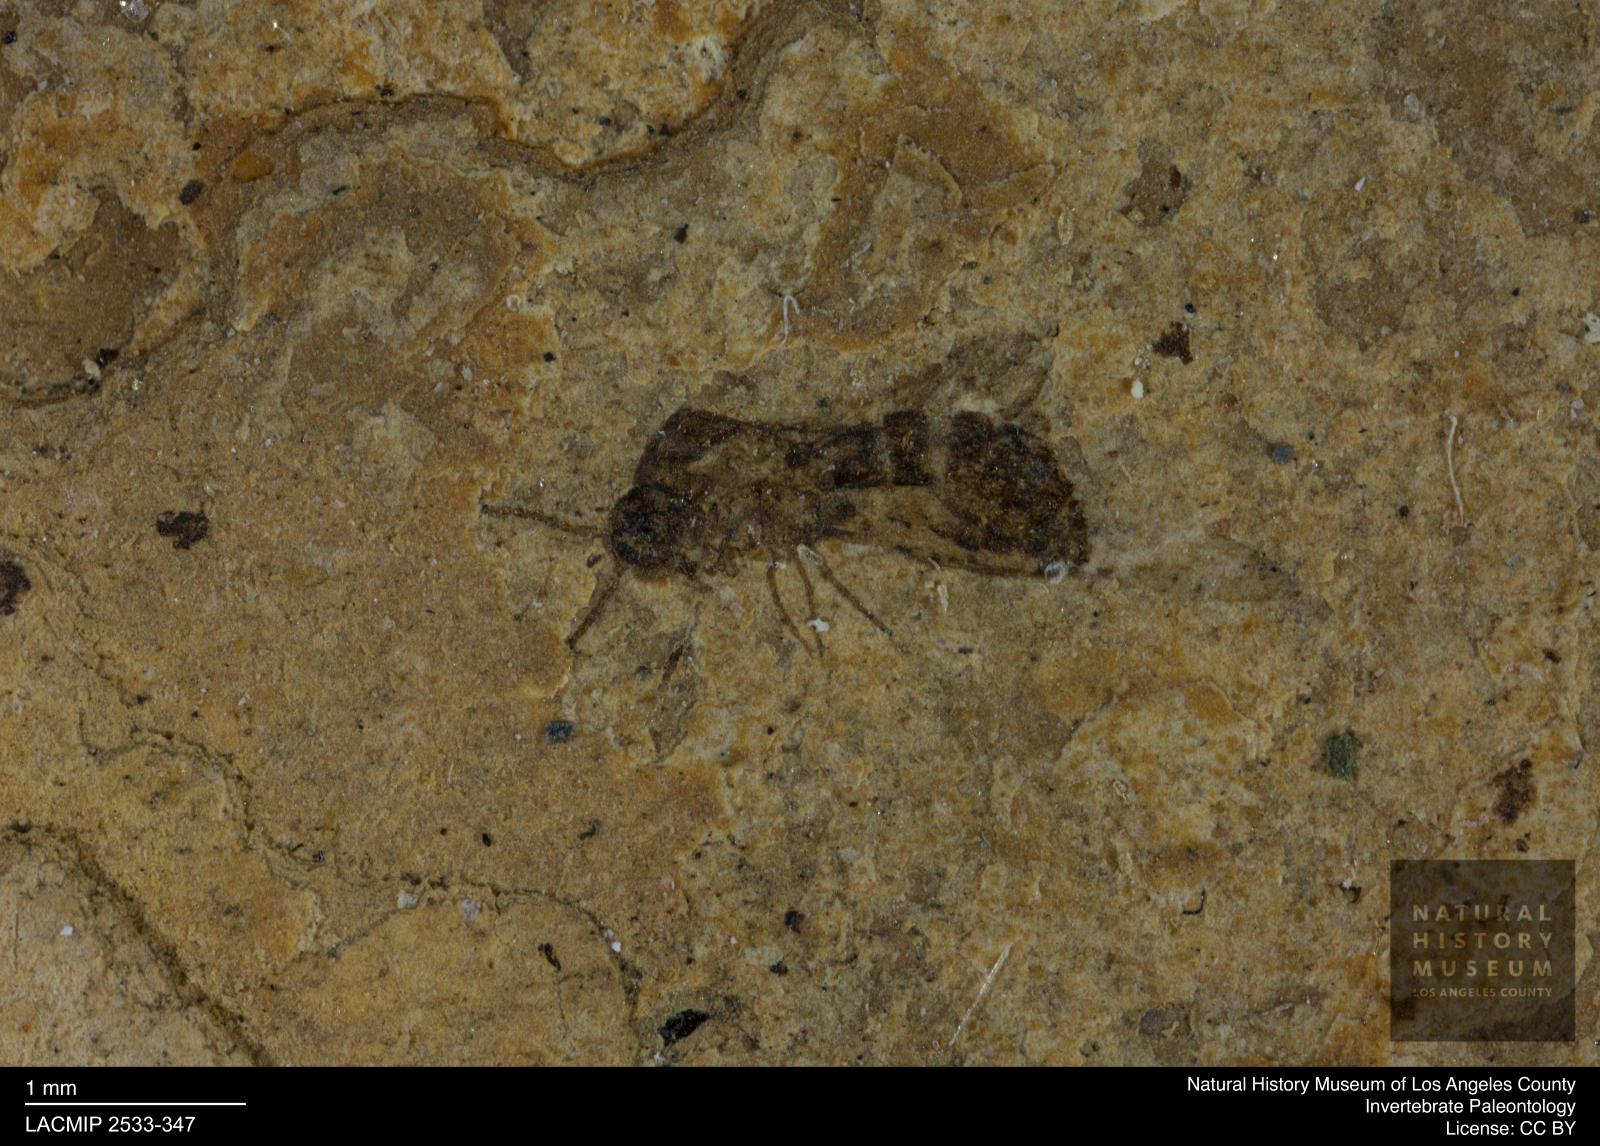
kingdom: Animalia
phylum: Arthropoda
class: Insecta
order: Diptera
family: Ceratopogonidae
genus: Culicoides
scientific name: Culicoides austerus
